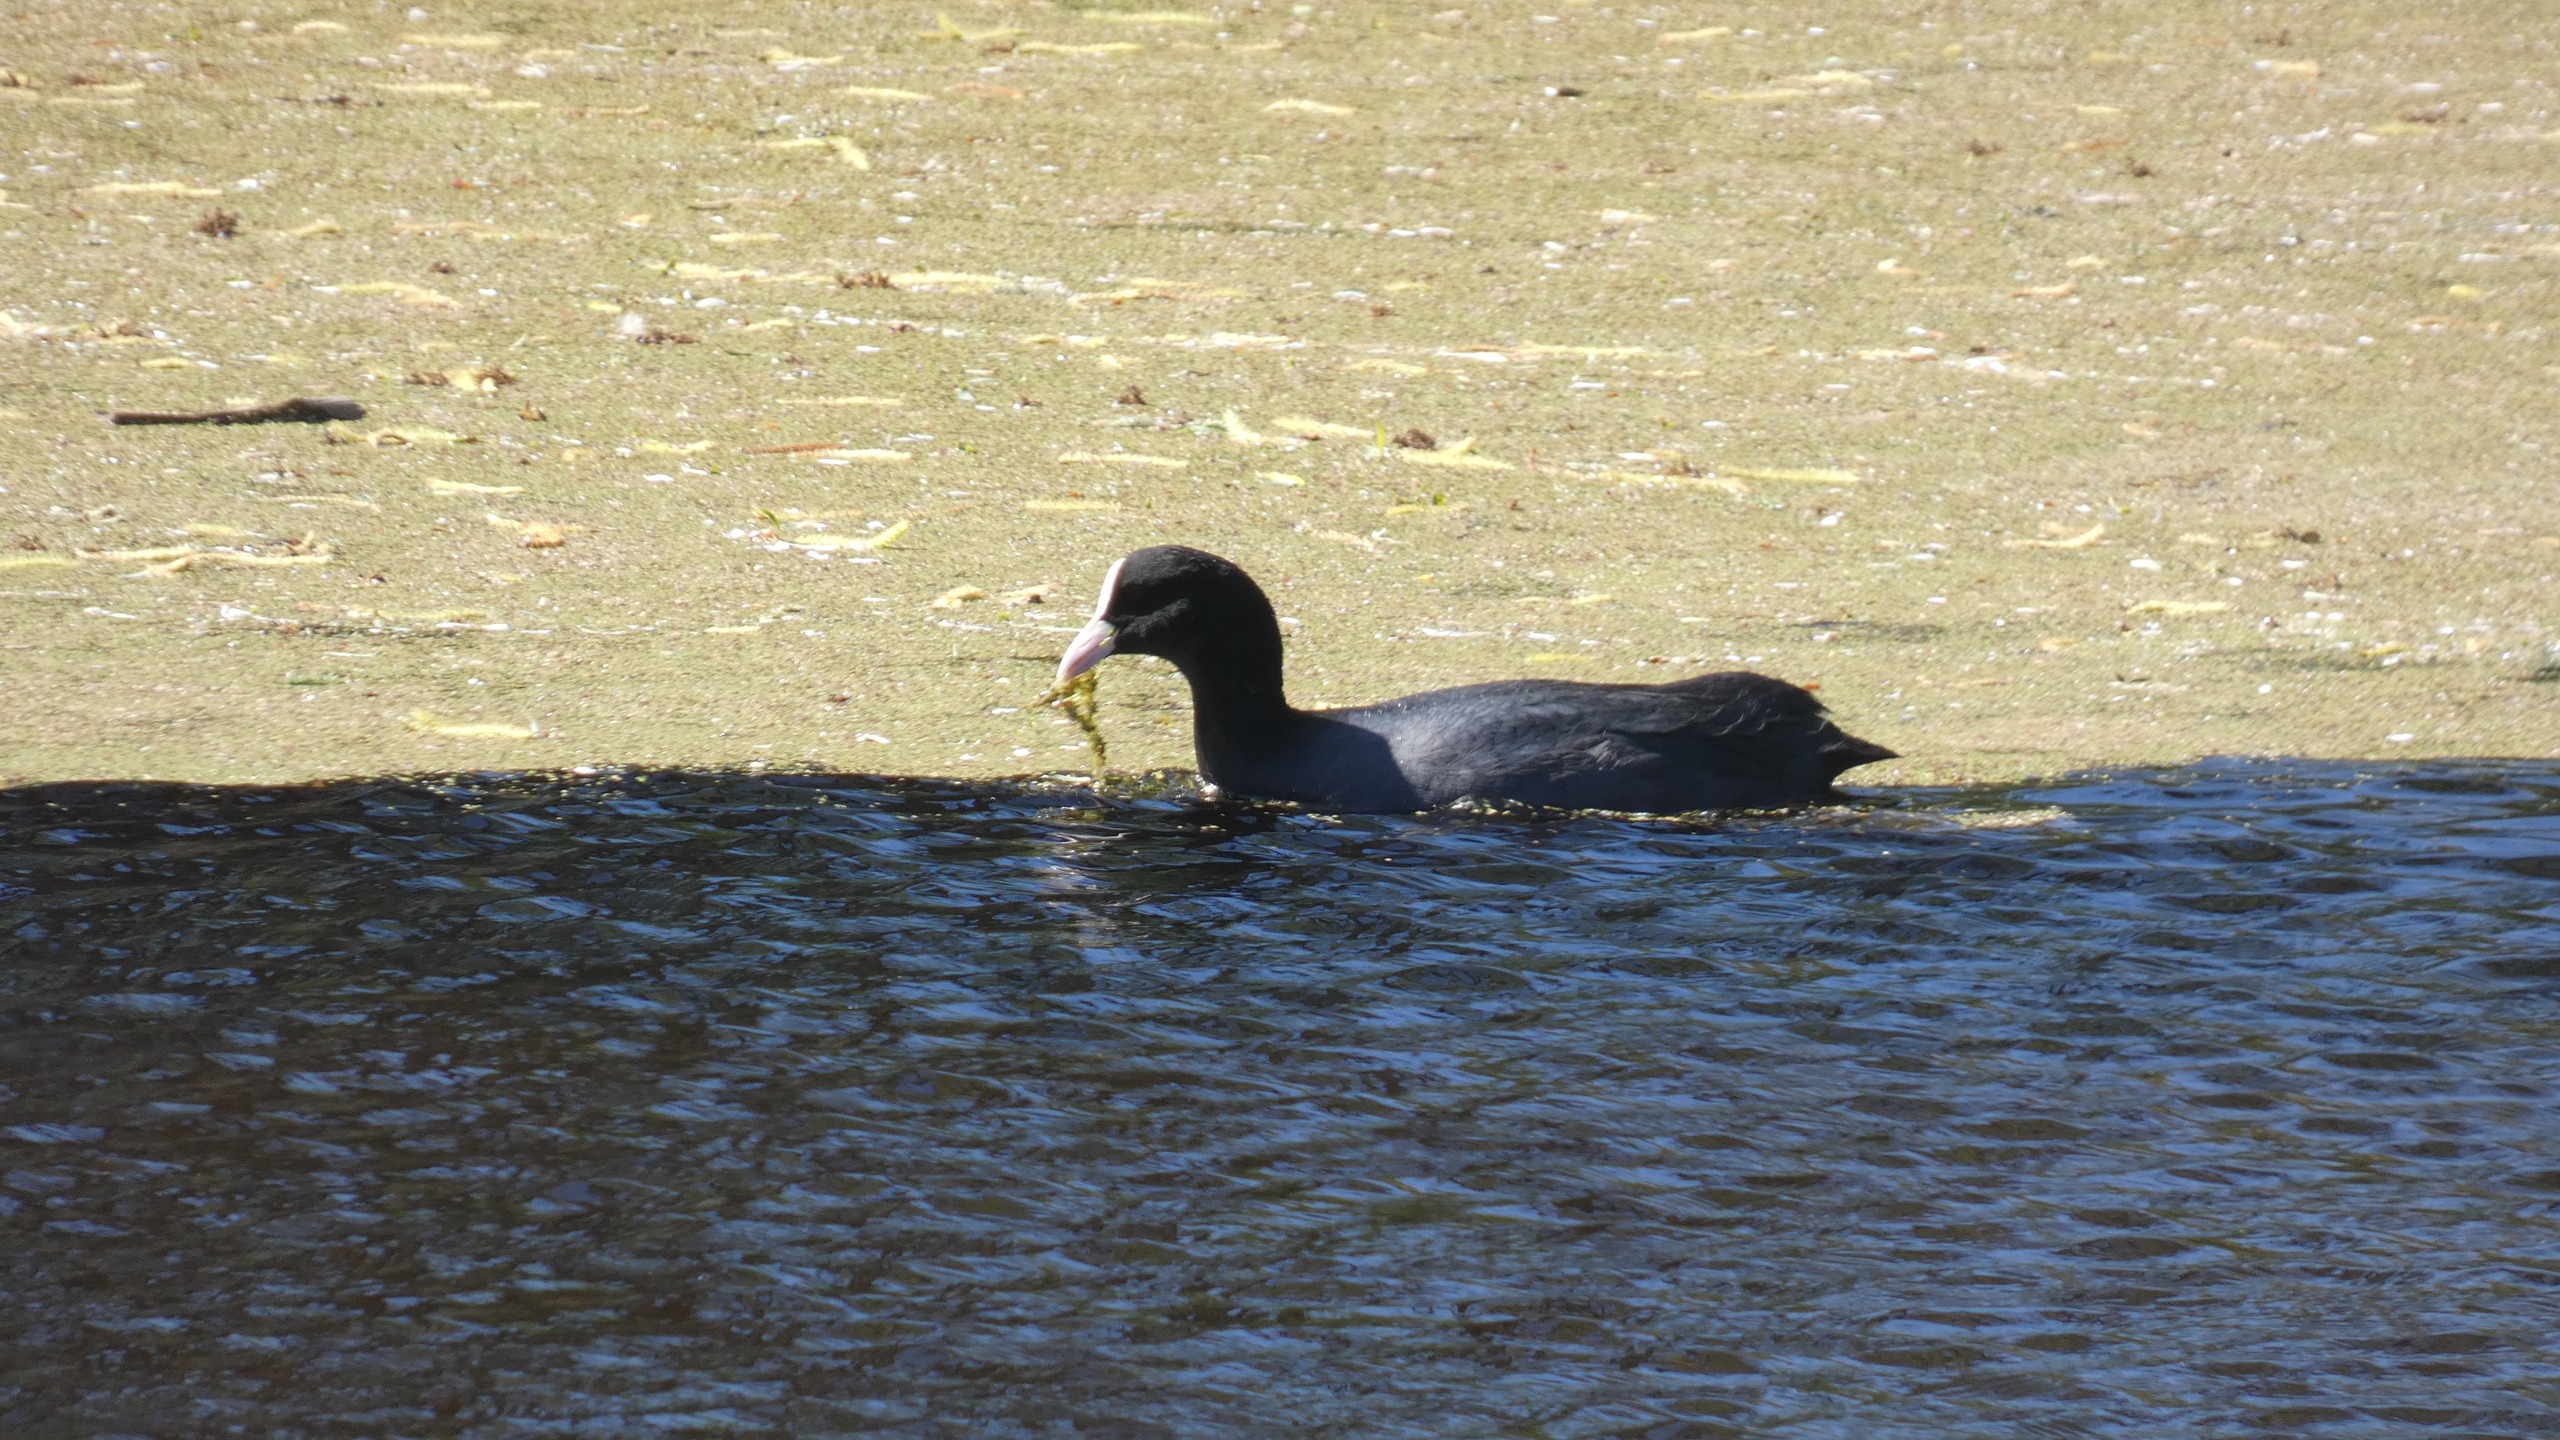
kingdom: Animalia
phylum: Chordata
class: Aves
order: Gruiformes
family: Rallidae
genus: Fulica
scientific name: Fulica atra
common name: Blishøne
